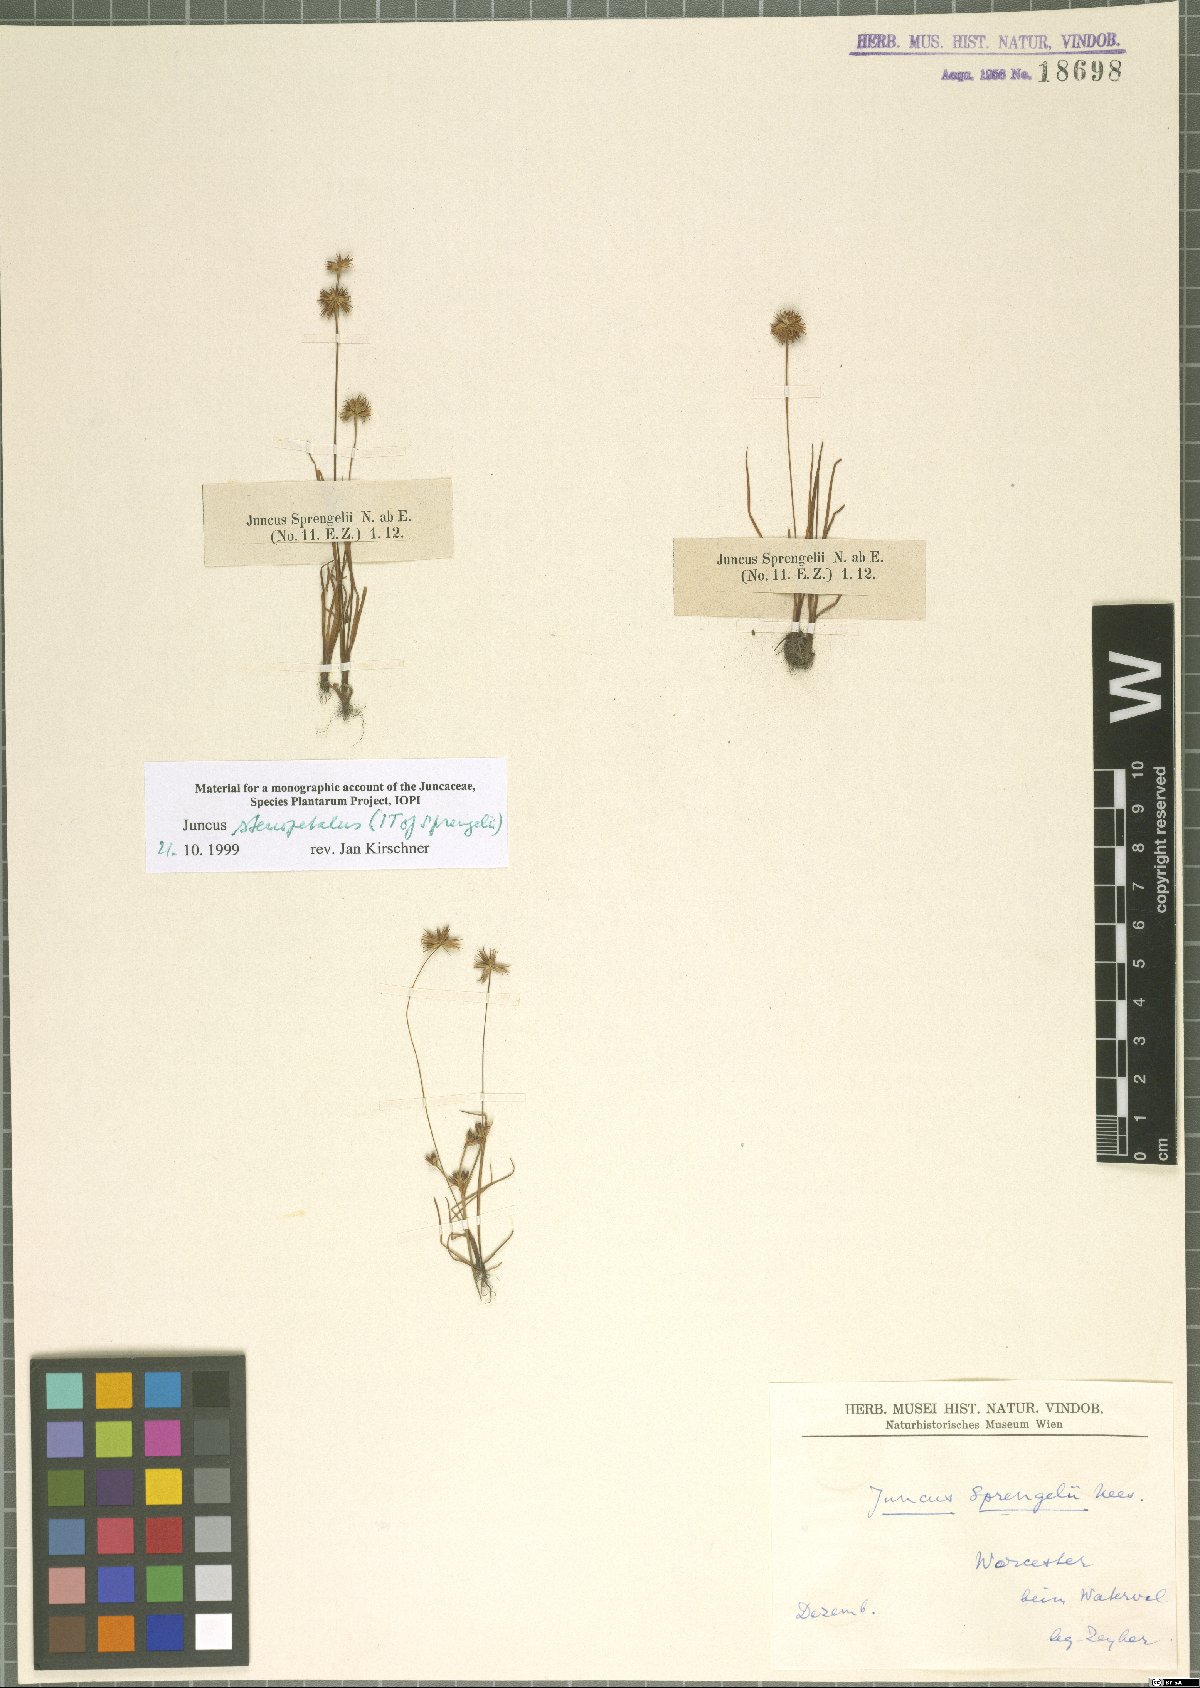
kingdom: Plantae
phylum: Tracheophyta
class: Liliopsida
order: Poales
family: Juncaceae
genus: Juncus
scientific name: Juncus stenopetalus
